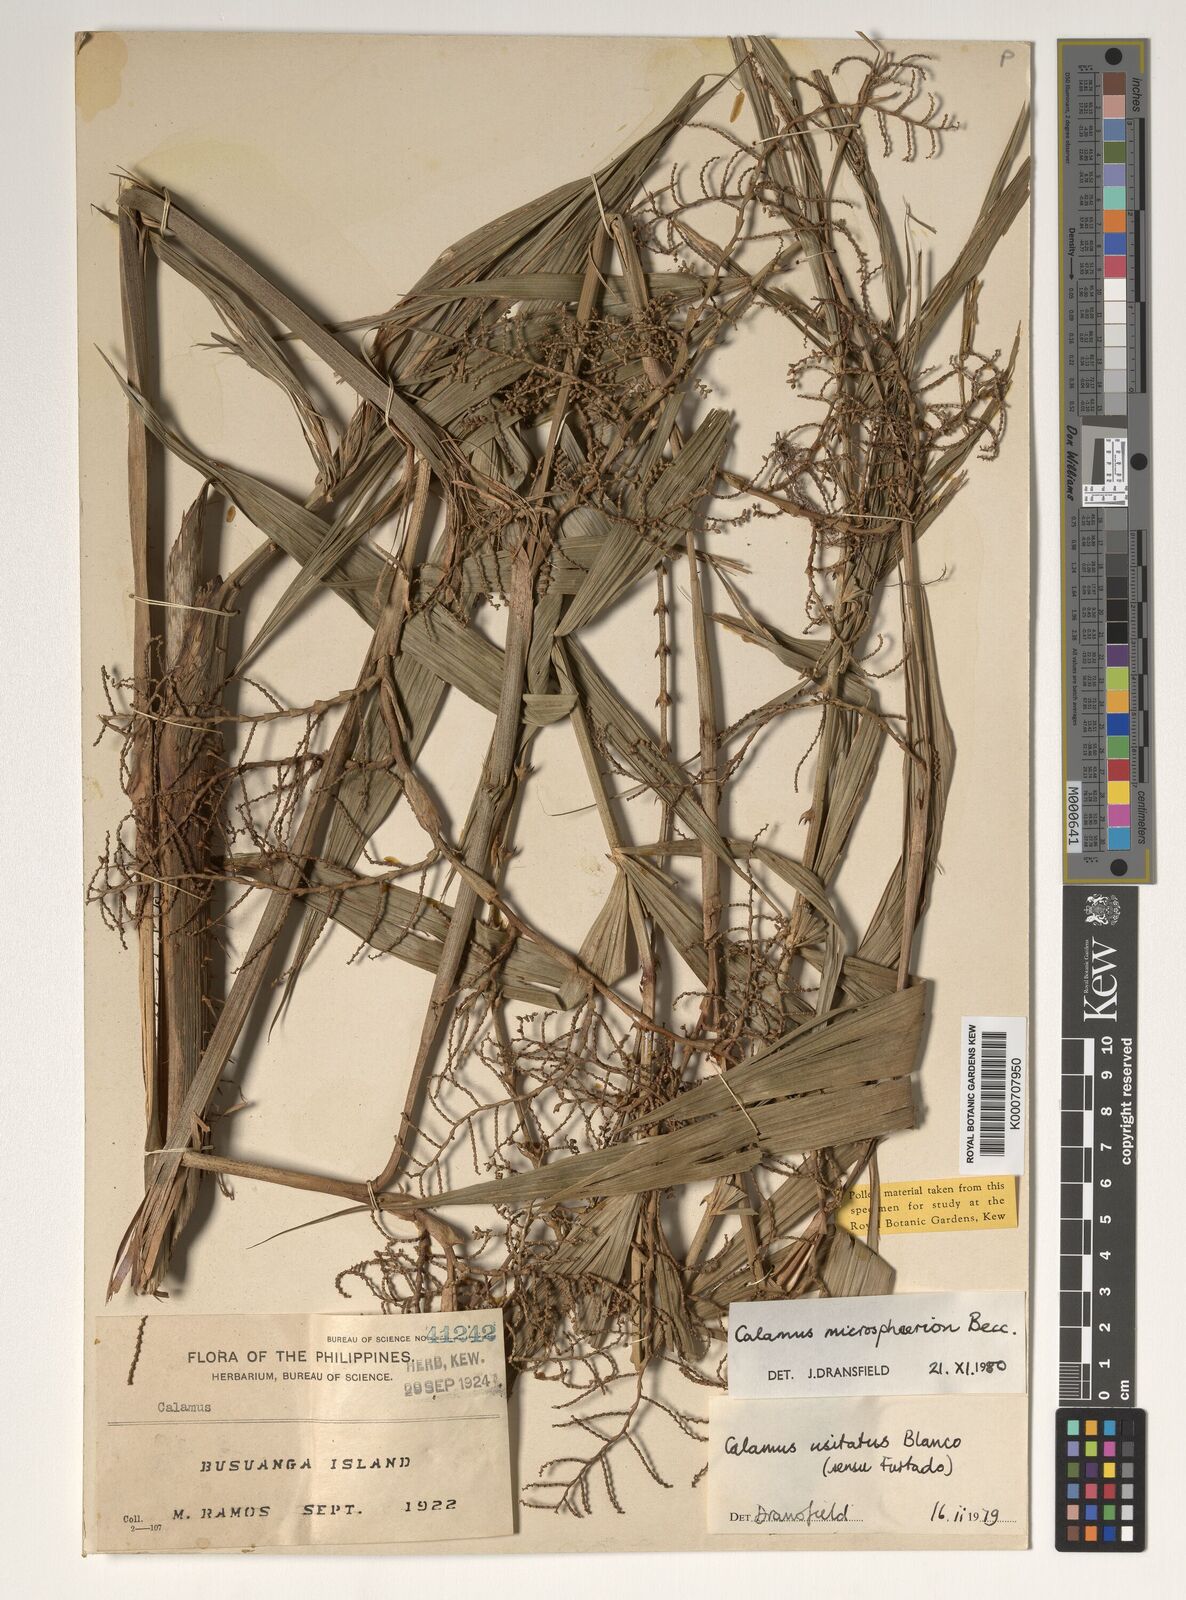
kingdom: Plantae
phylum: Tracheophyta
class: Liliopsida
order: Arecales
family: Arecaceae
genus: Calamus
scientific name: Calamus microsphaerion
